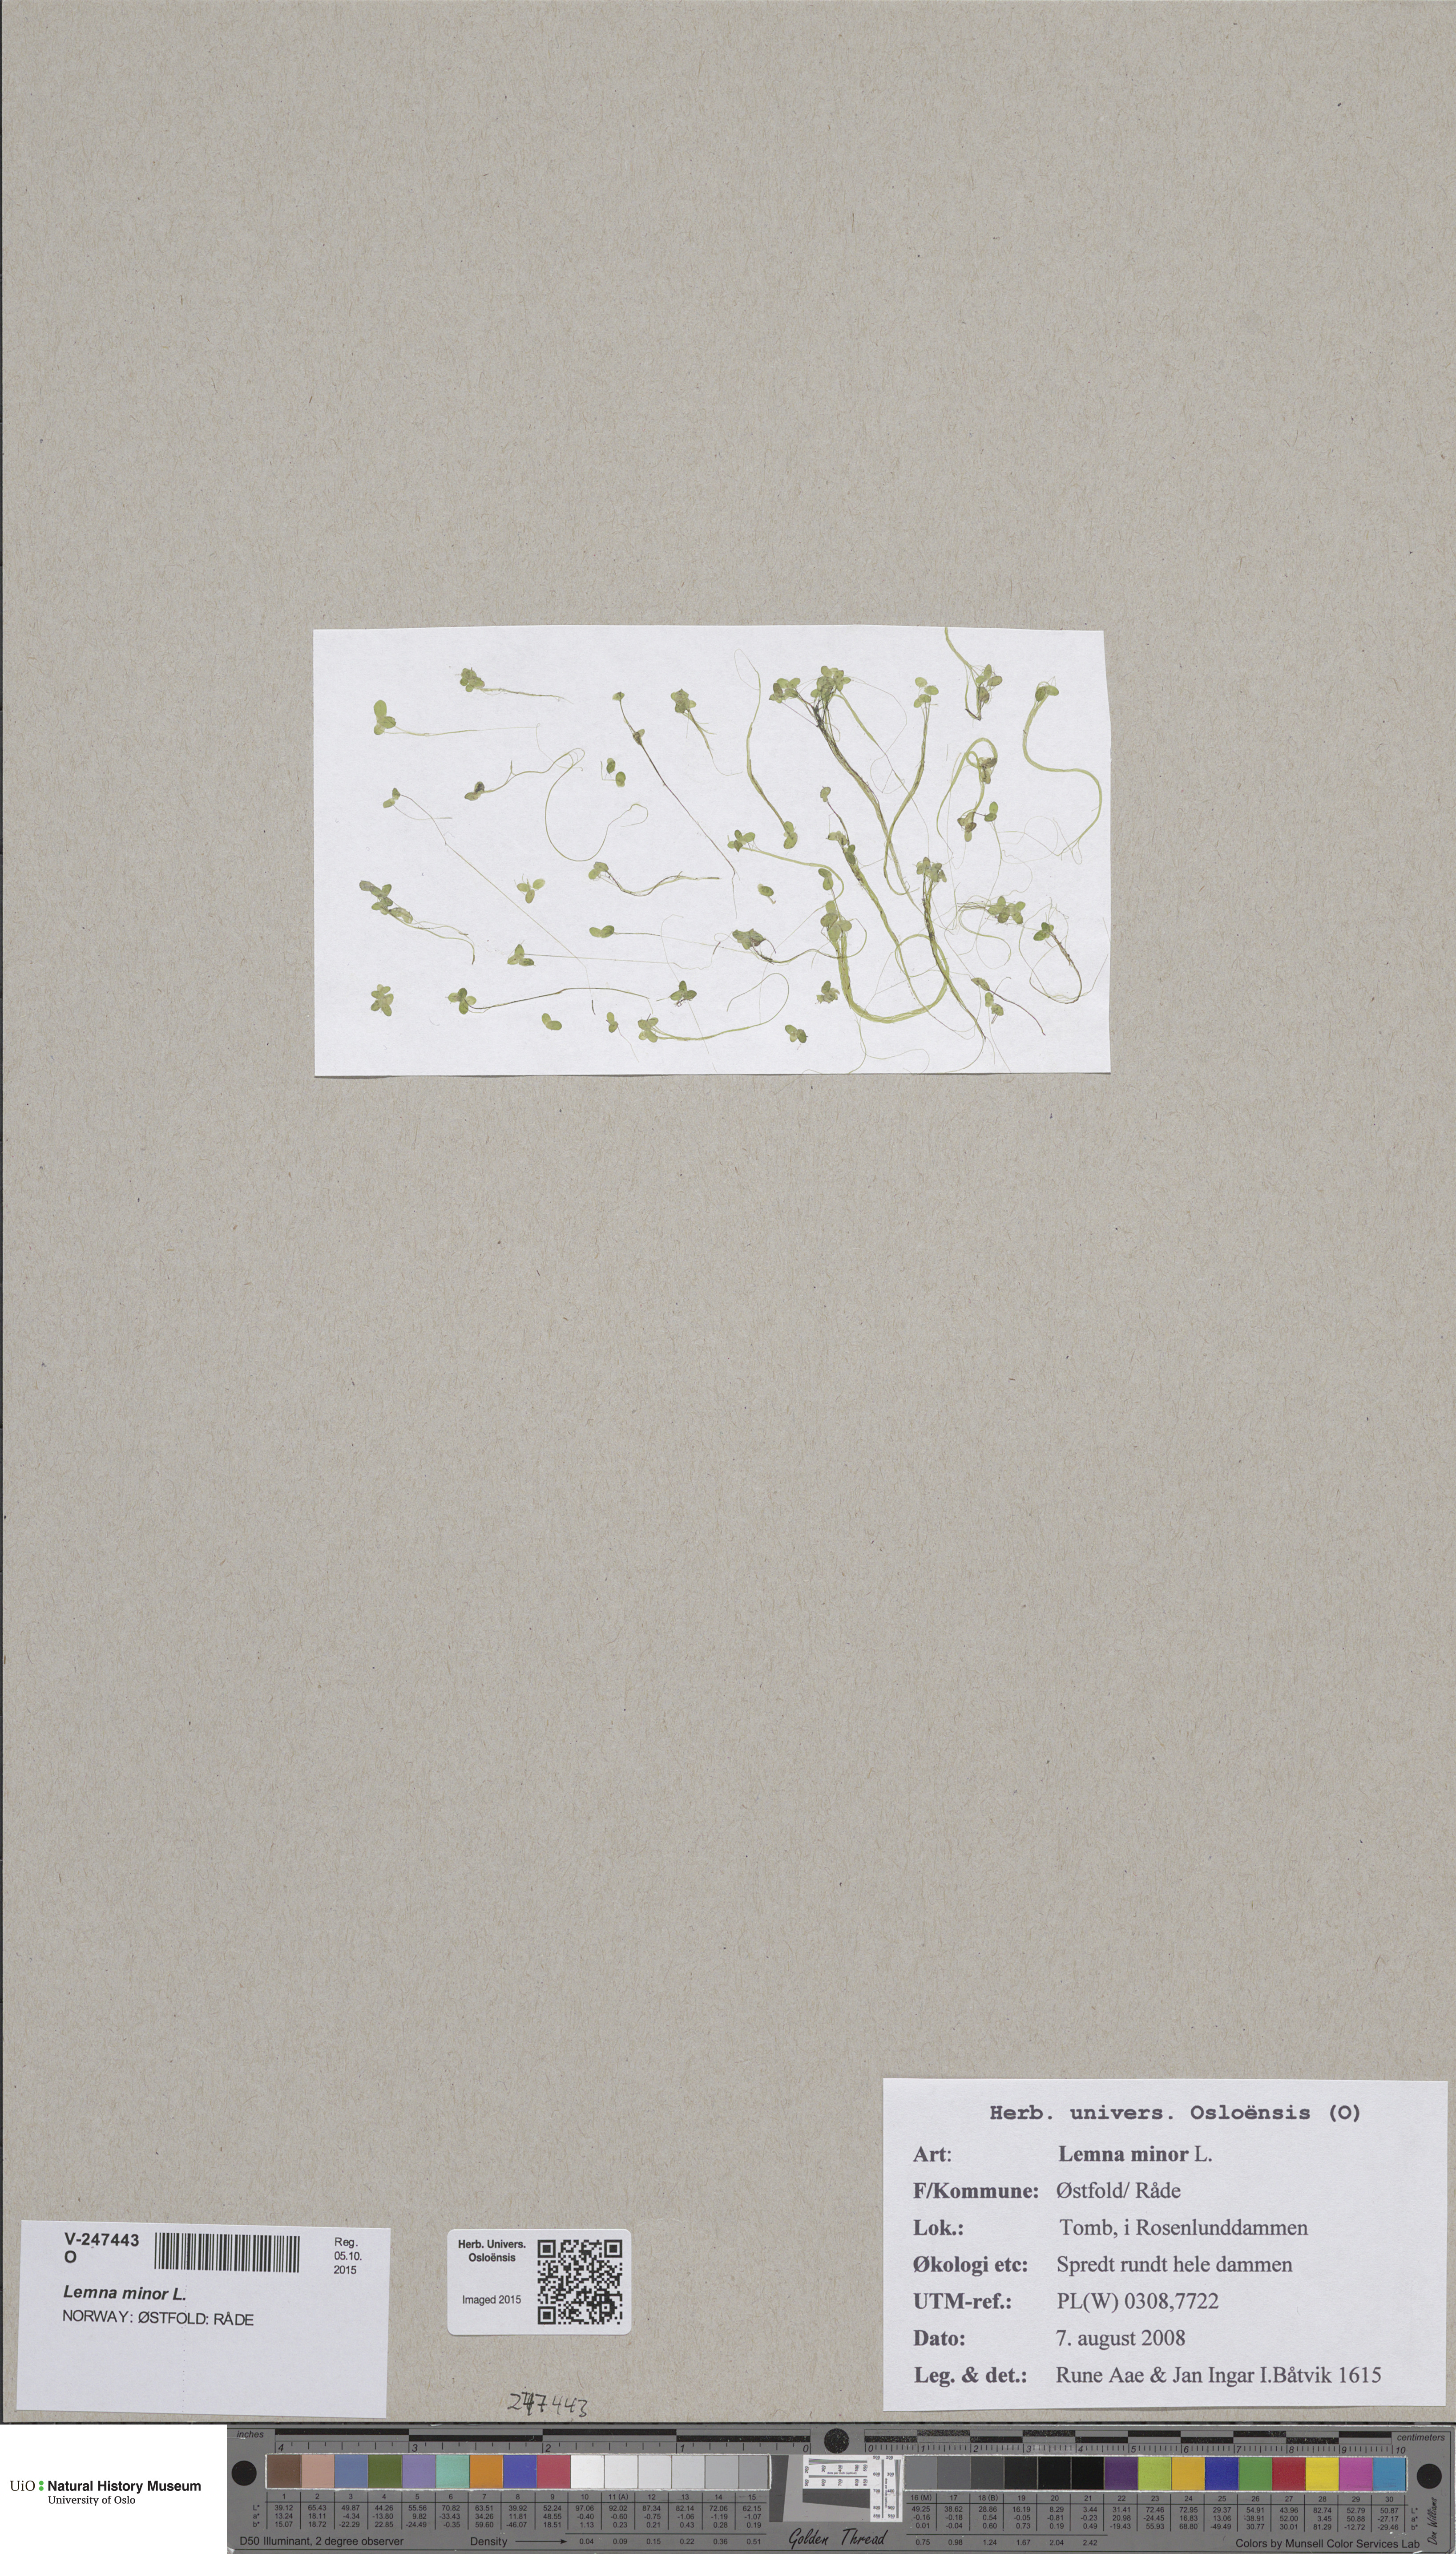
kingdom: Plantae
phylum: Tracheophyta
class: Liliopsida
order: Alismatales
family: Araceae
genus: Lemna
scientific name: Lemna minor
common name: Common duckweed
